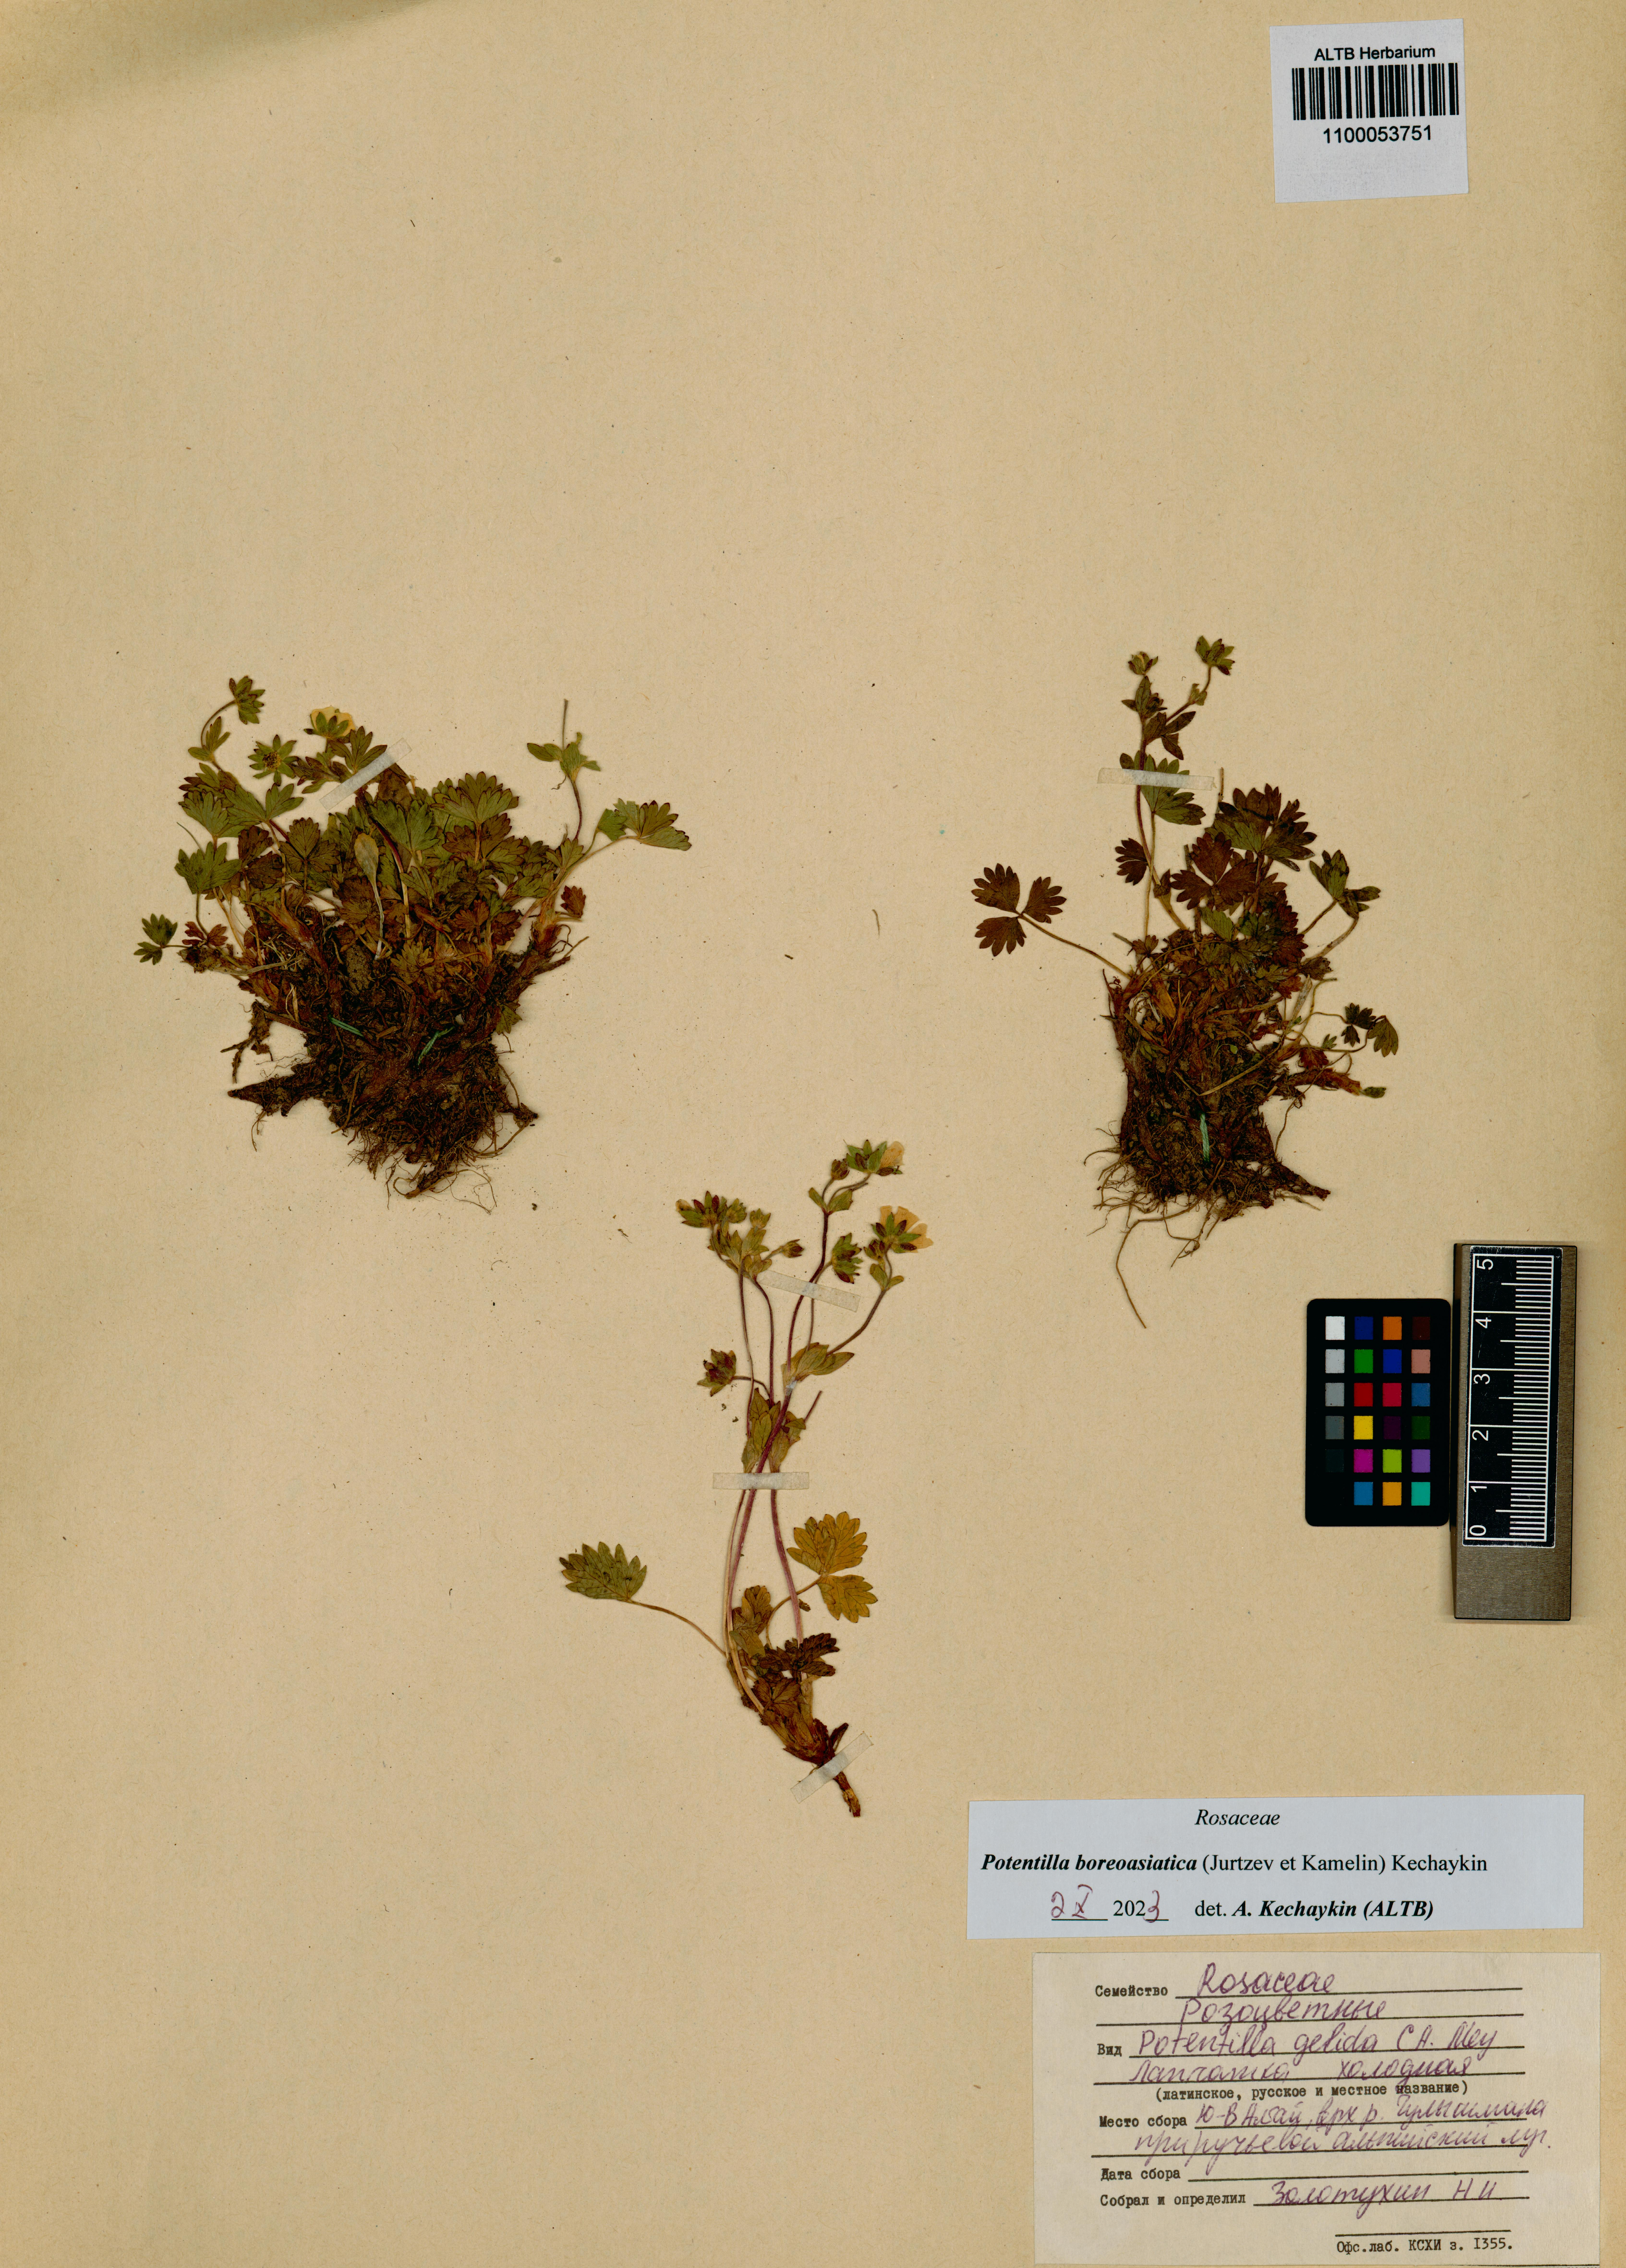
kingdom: Plantae
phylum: Tracheophyta
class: Magnoliopsida
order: Rosales
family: Rosaceae
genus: Potentilla
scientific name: Potentilla
